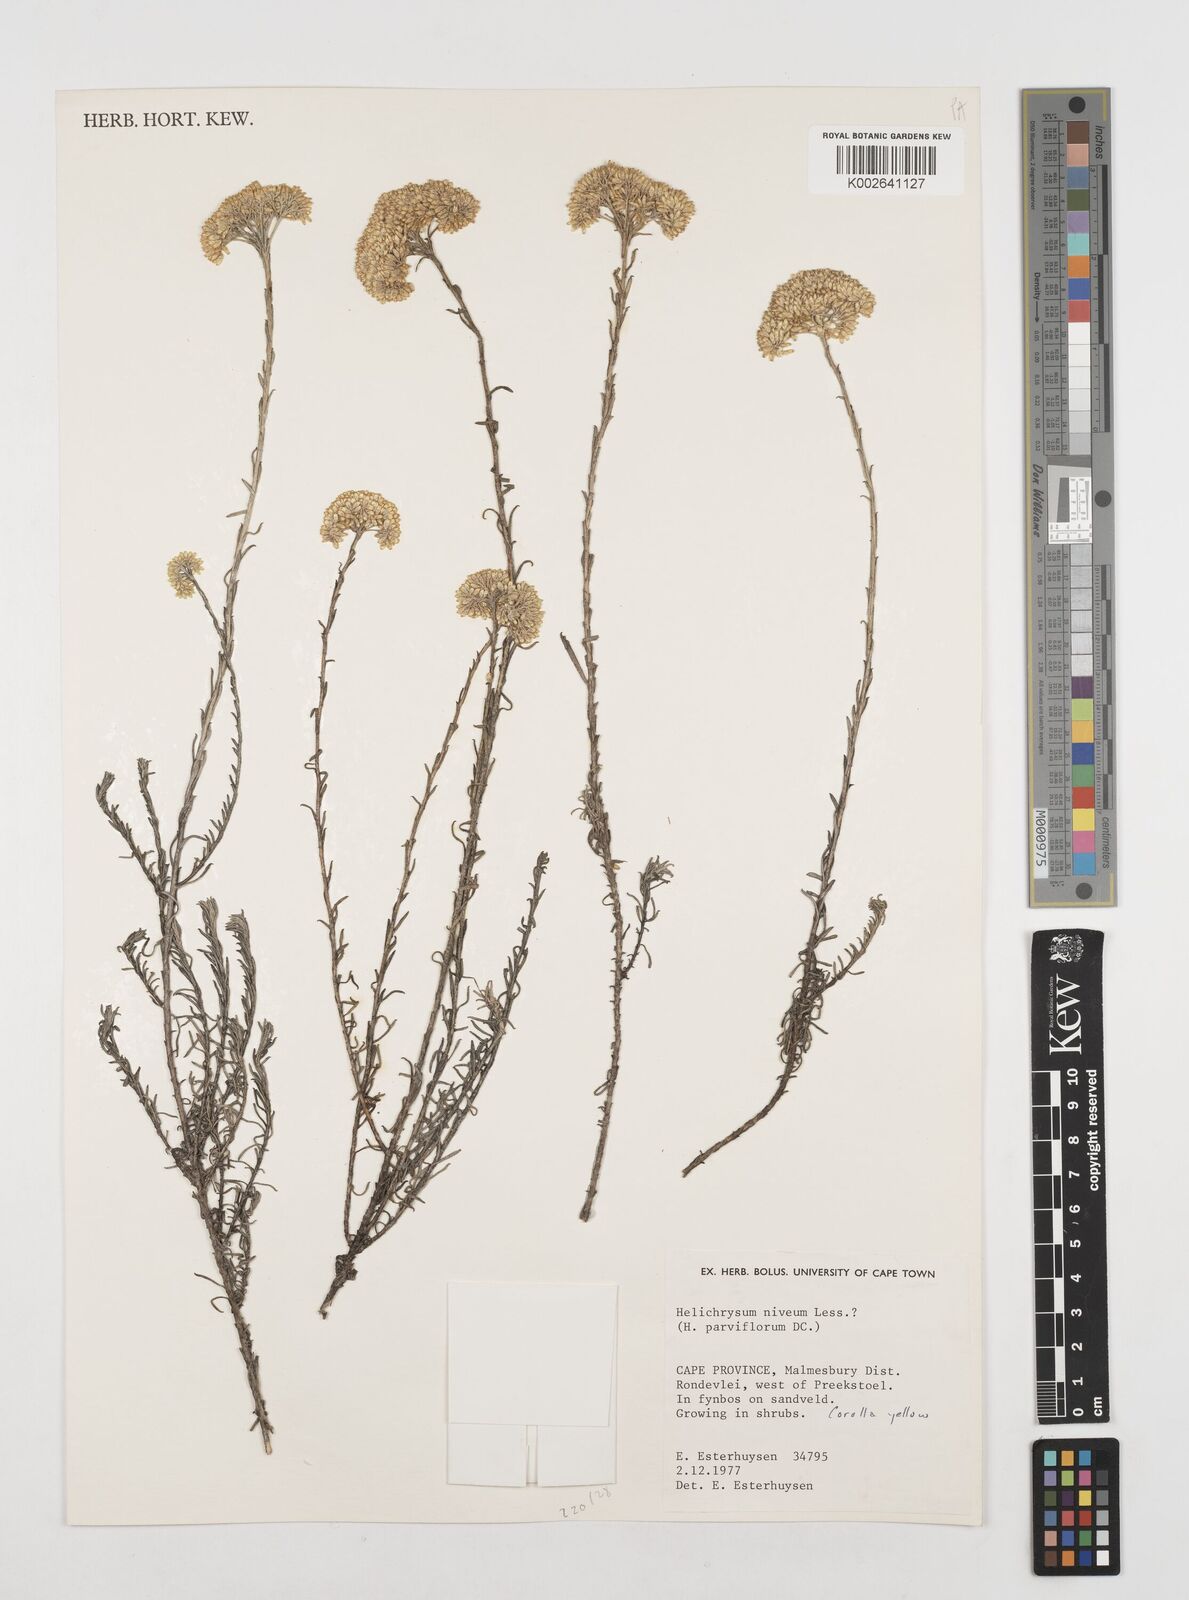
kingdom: Plantae
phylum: Tracheophyta
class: Magnoliopsida
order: Asterales
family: Asteraceae
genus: Helichrysum
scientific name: Helichrysum rutilans
